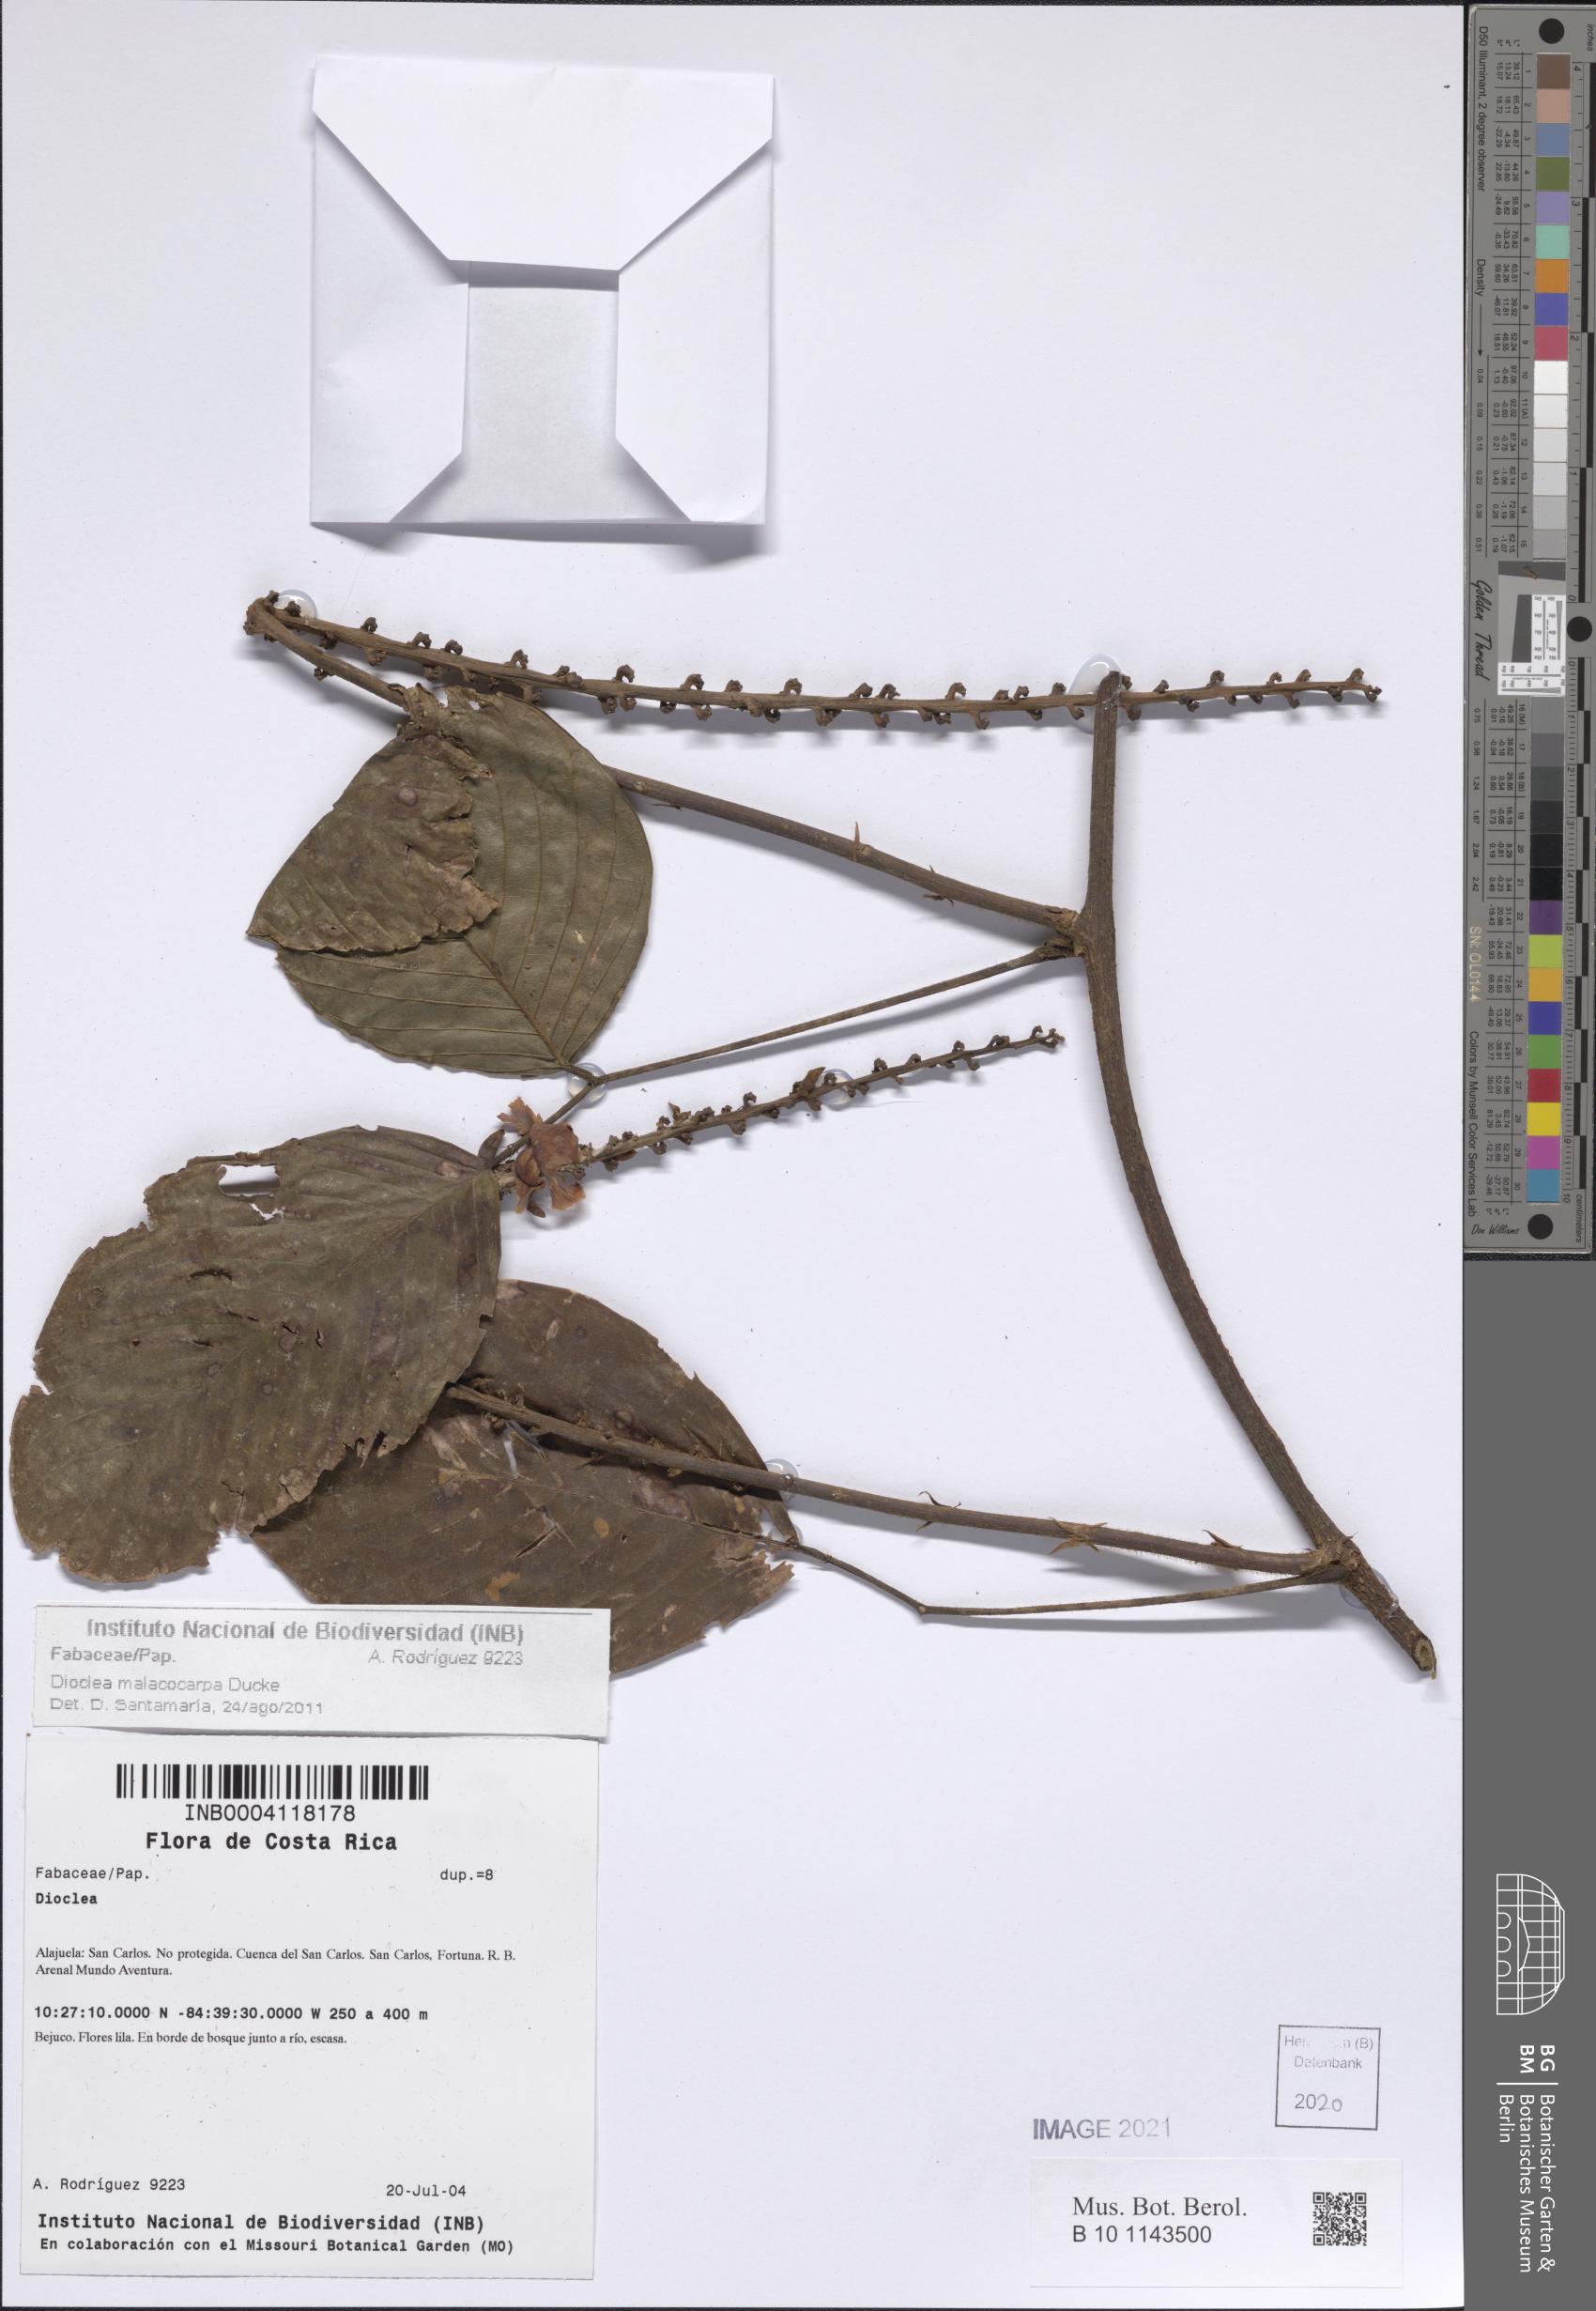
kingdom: Plantae
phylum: Tracheophyta
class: Magnoliopsida
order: Fabales
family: Fabaceae
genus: Macropsychanthus
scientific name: Macropsychanthus malacocarpus
